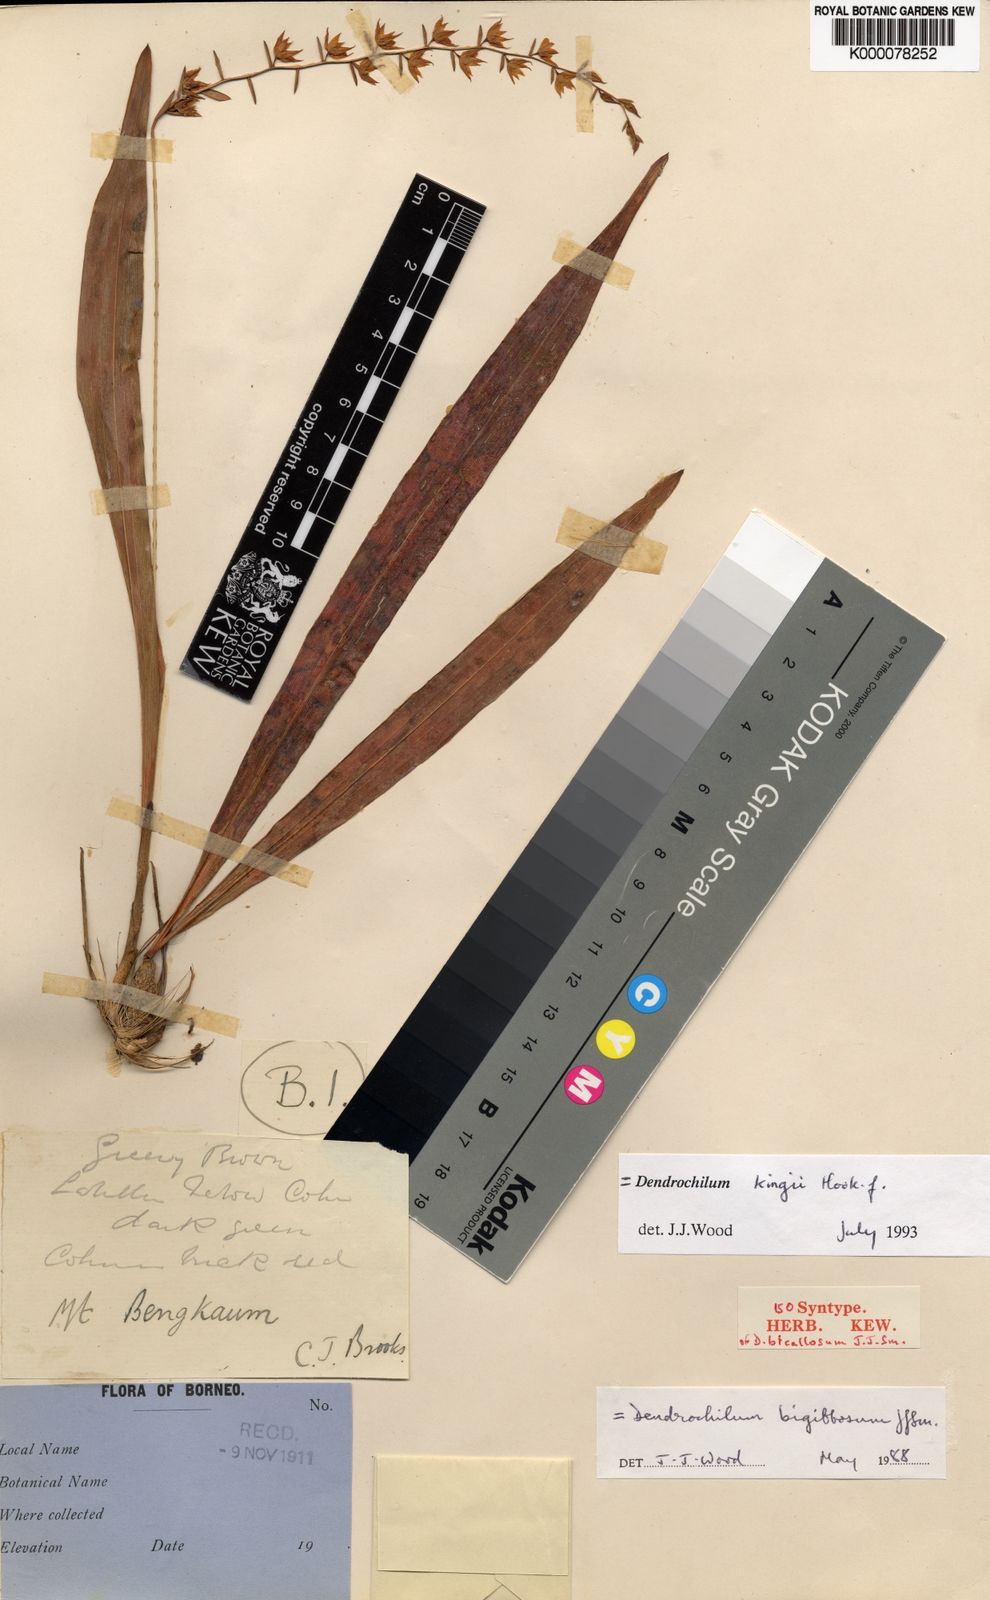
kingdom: Plantae
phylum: Tracheophyta
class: Liliopsida
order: Asparagales
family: Orchidaceae
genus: Coelogyne
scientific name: Coelogyne bigibbosa
